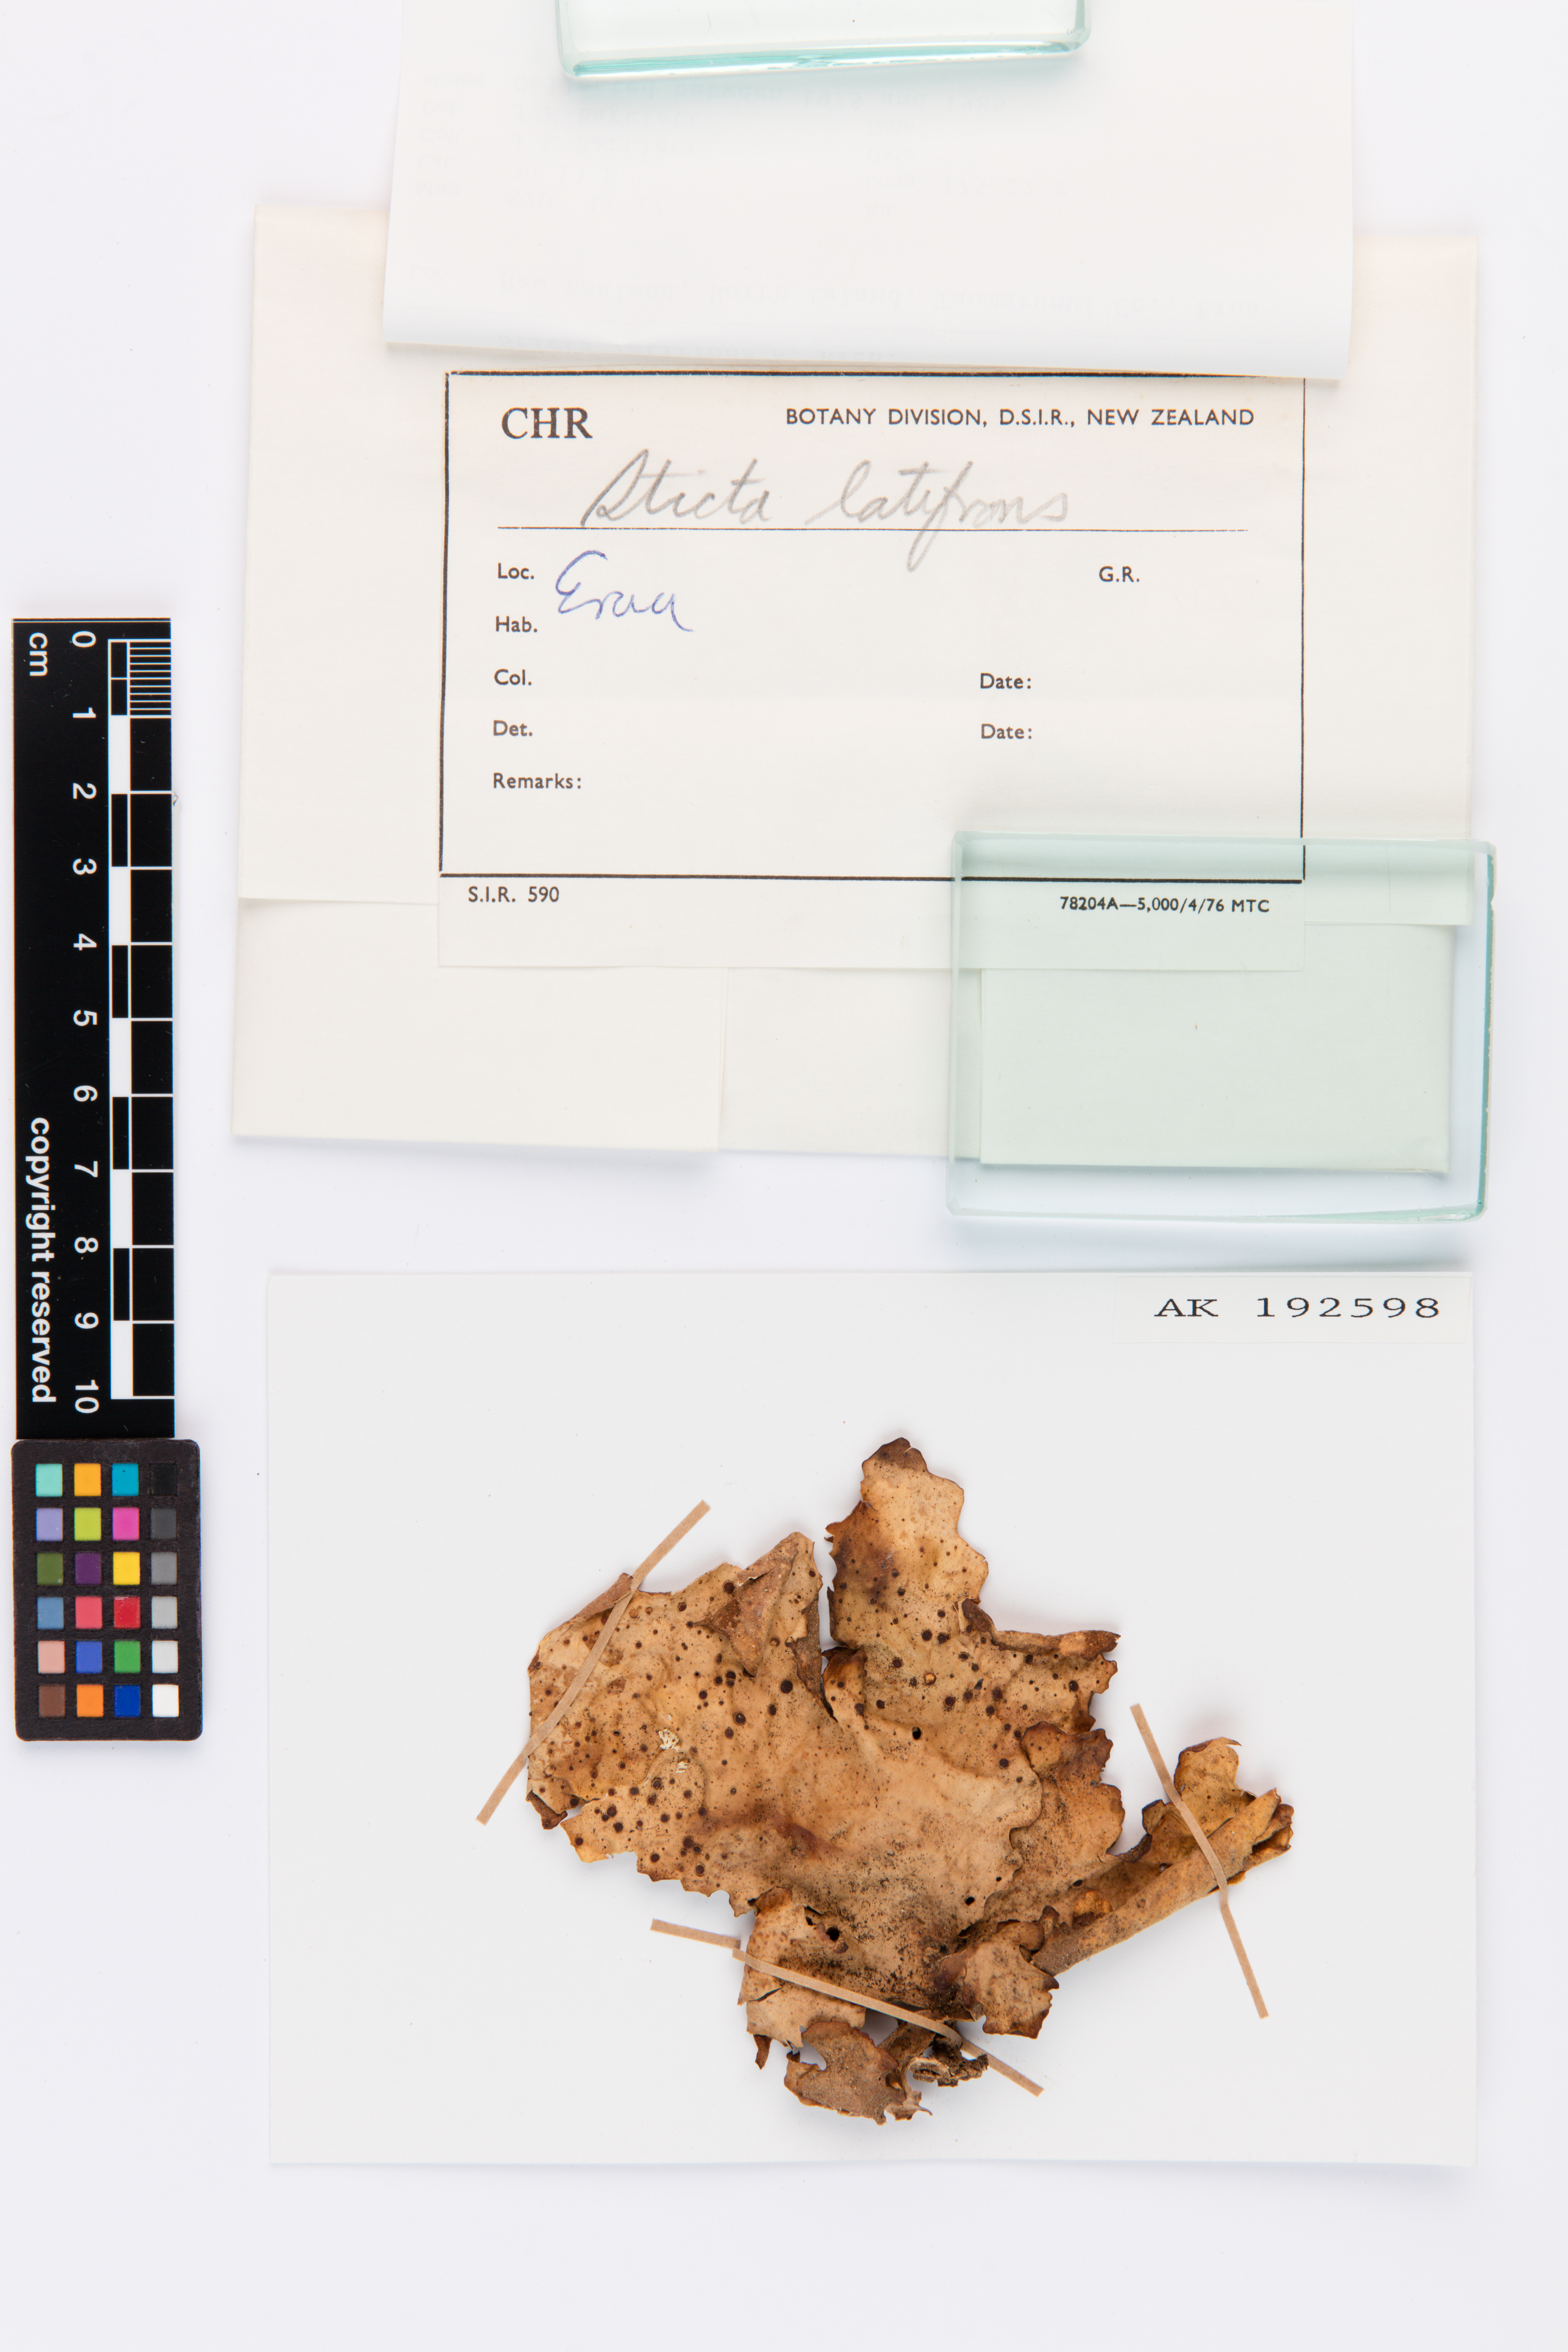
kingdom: Fungi
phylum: Ascomycota
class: Lecanoromycetes
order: Peltigerales
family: Lobariaceae
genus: Sticta
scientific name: Sticta latifrons
